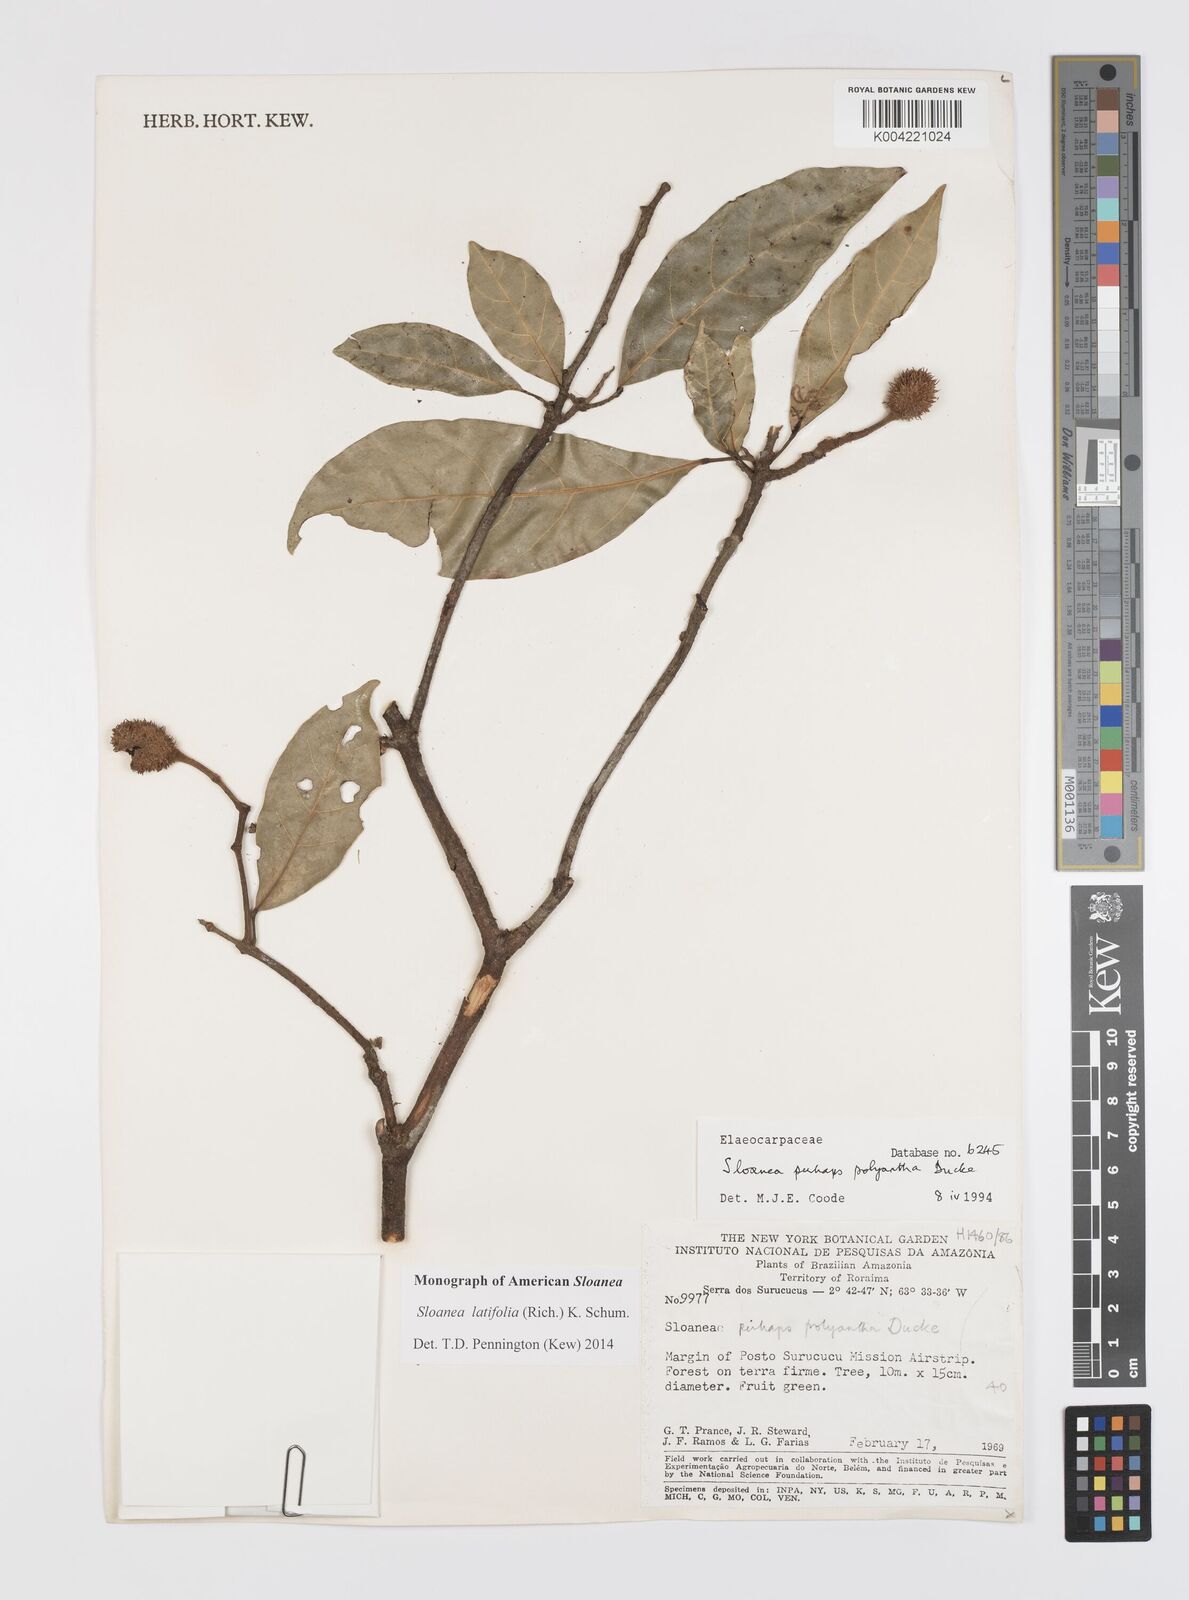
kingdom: Plantae
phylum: Tracheophyta
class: Magnoliopsida
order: Oxalidales
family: Elaeocarpaceae
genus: Sloanea
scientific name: Sloanea latifolia
